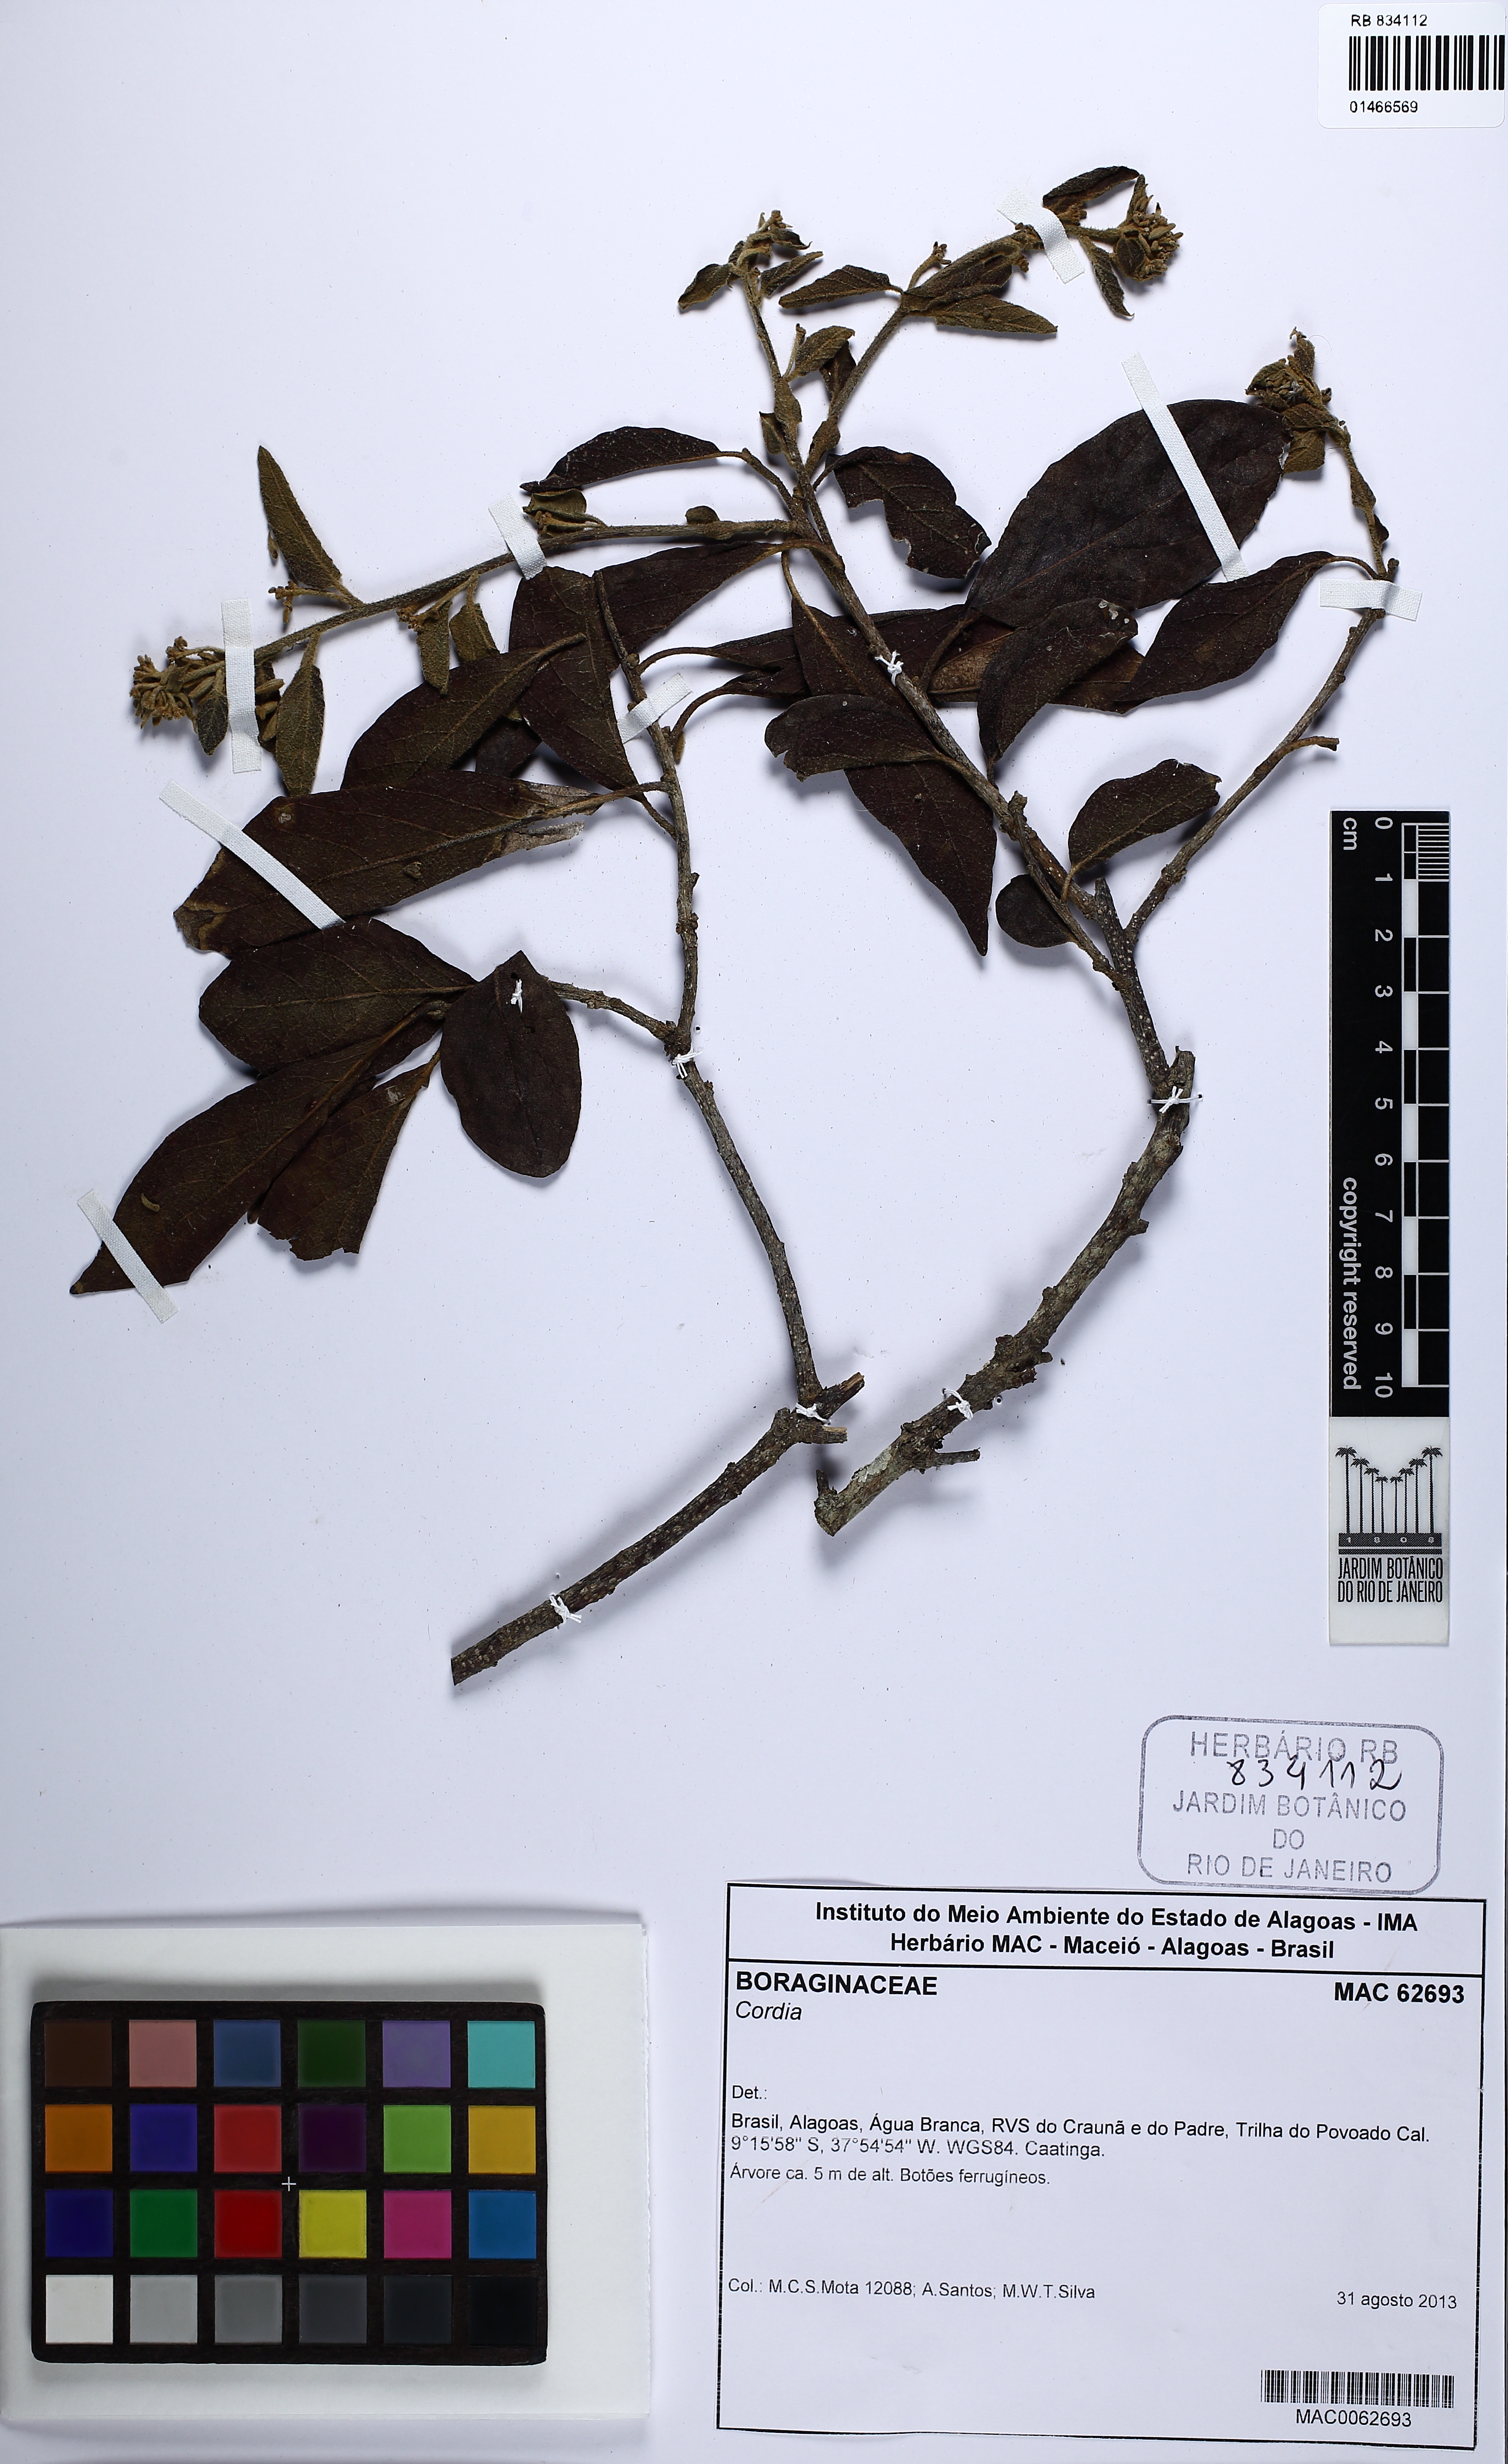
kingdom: Plantae
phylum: Tracheophyta
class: Magnoliopsida
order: Boraginales
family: Cordiaceae
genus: Cordia
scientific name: Cordia
